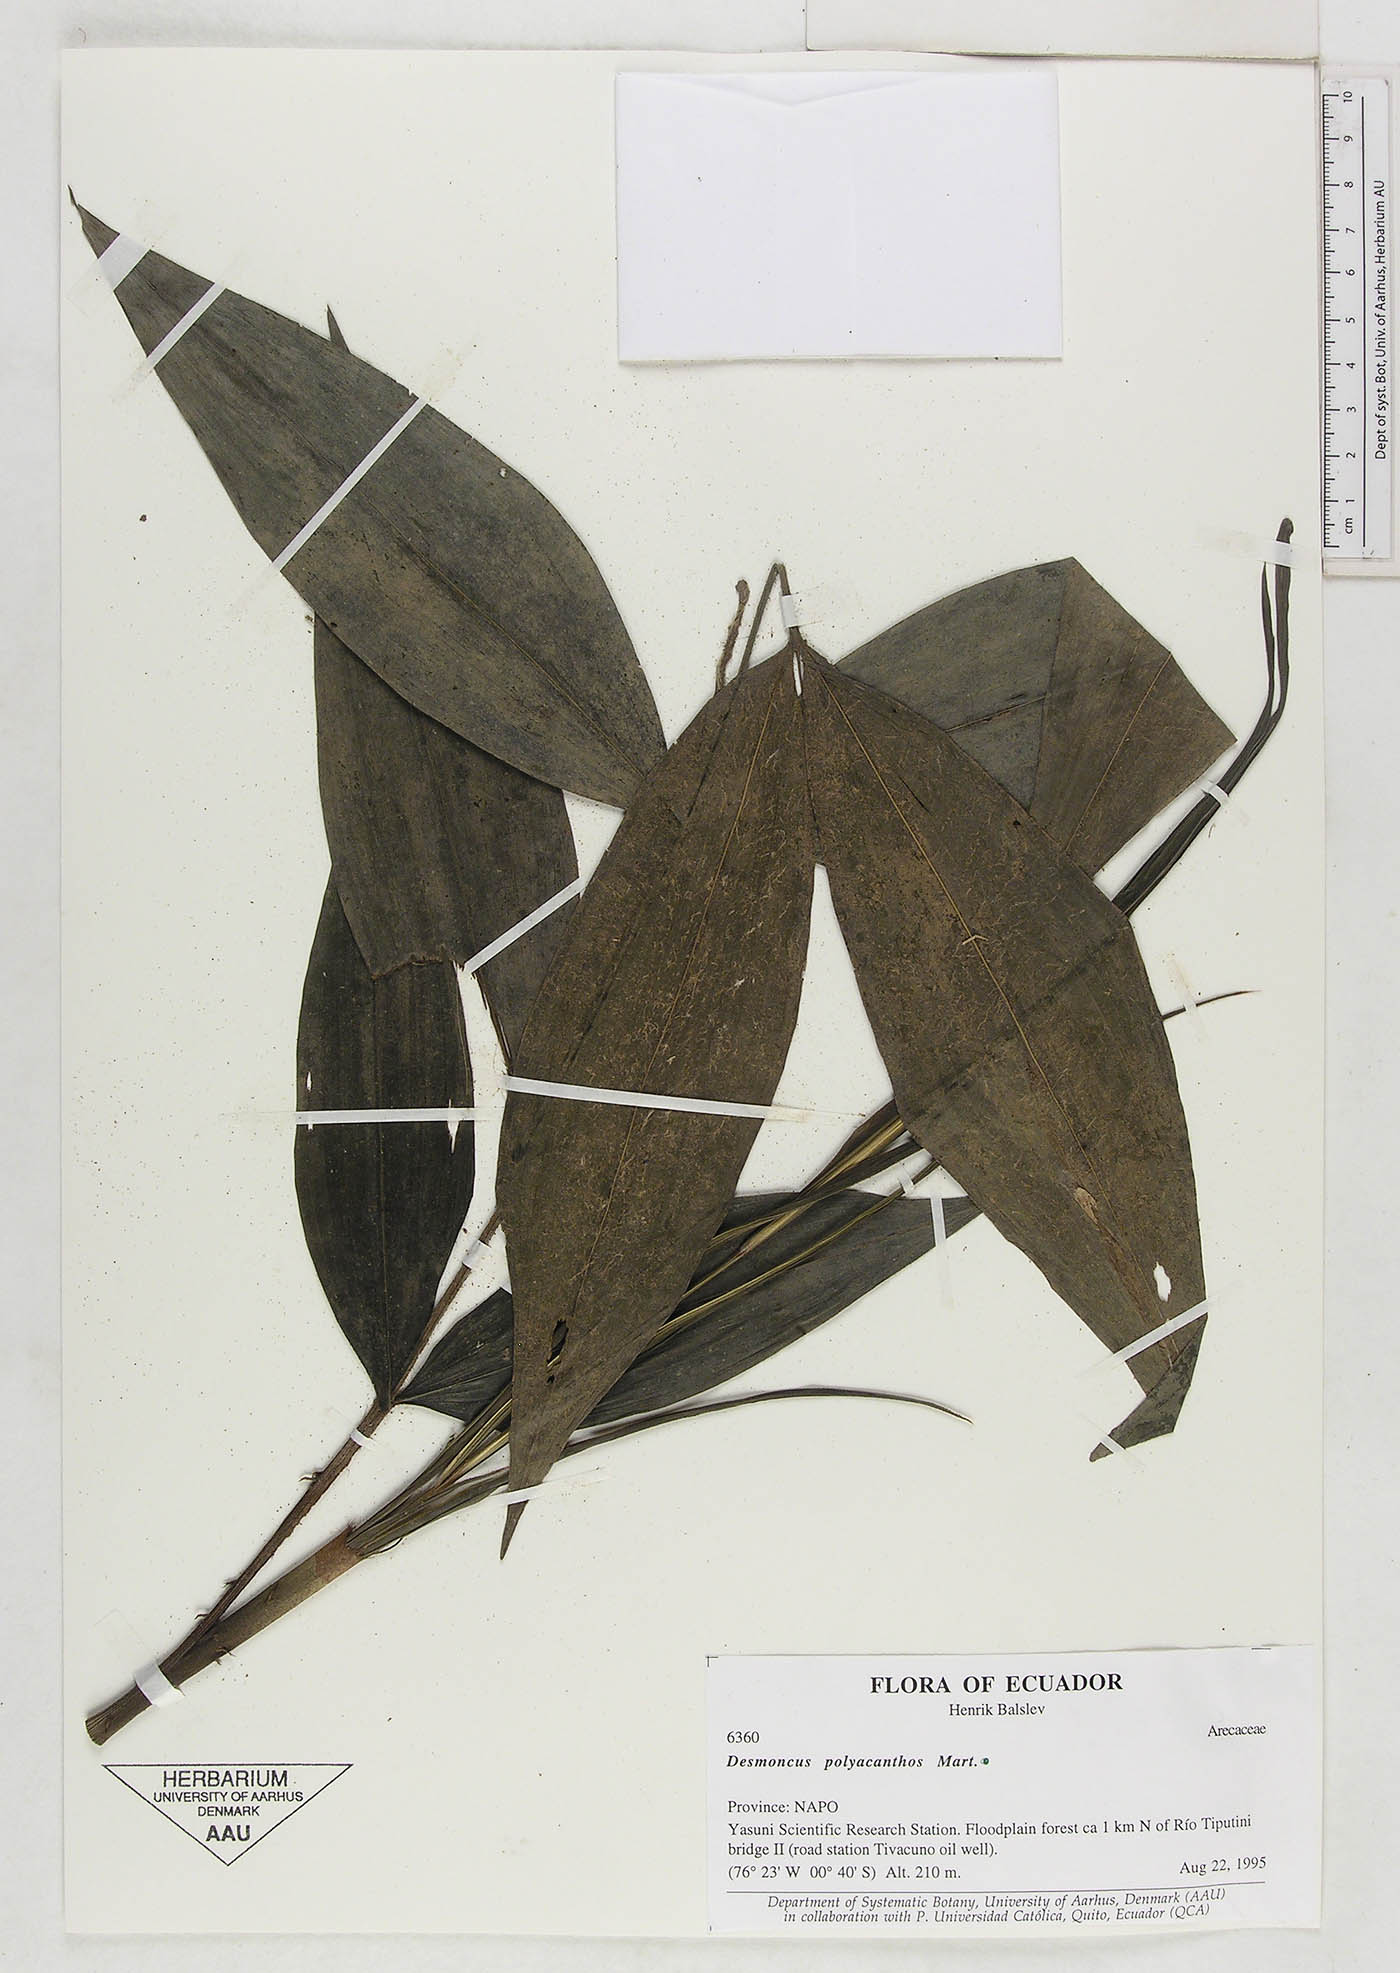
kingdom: Plantae
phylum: Tracheophyta
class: Liliopsida
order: Arecales
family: Arecaceae
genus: Desmoncus
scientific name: Desmoncus prunifer
